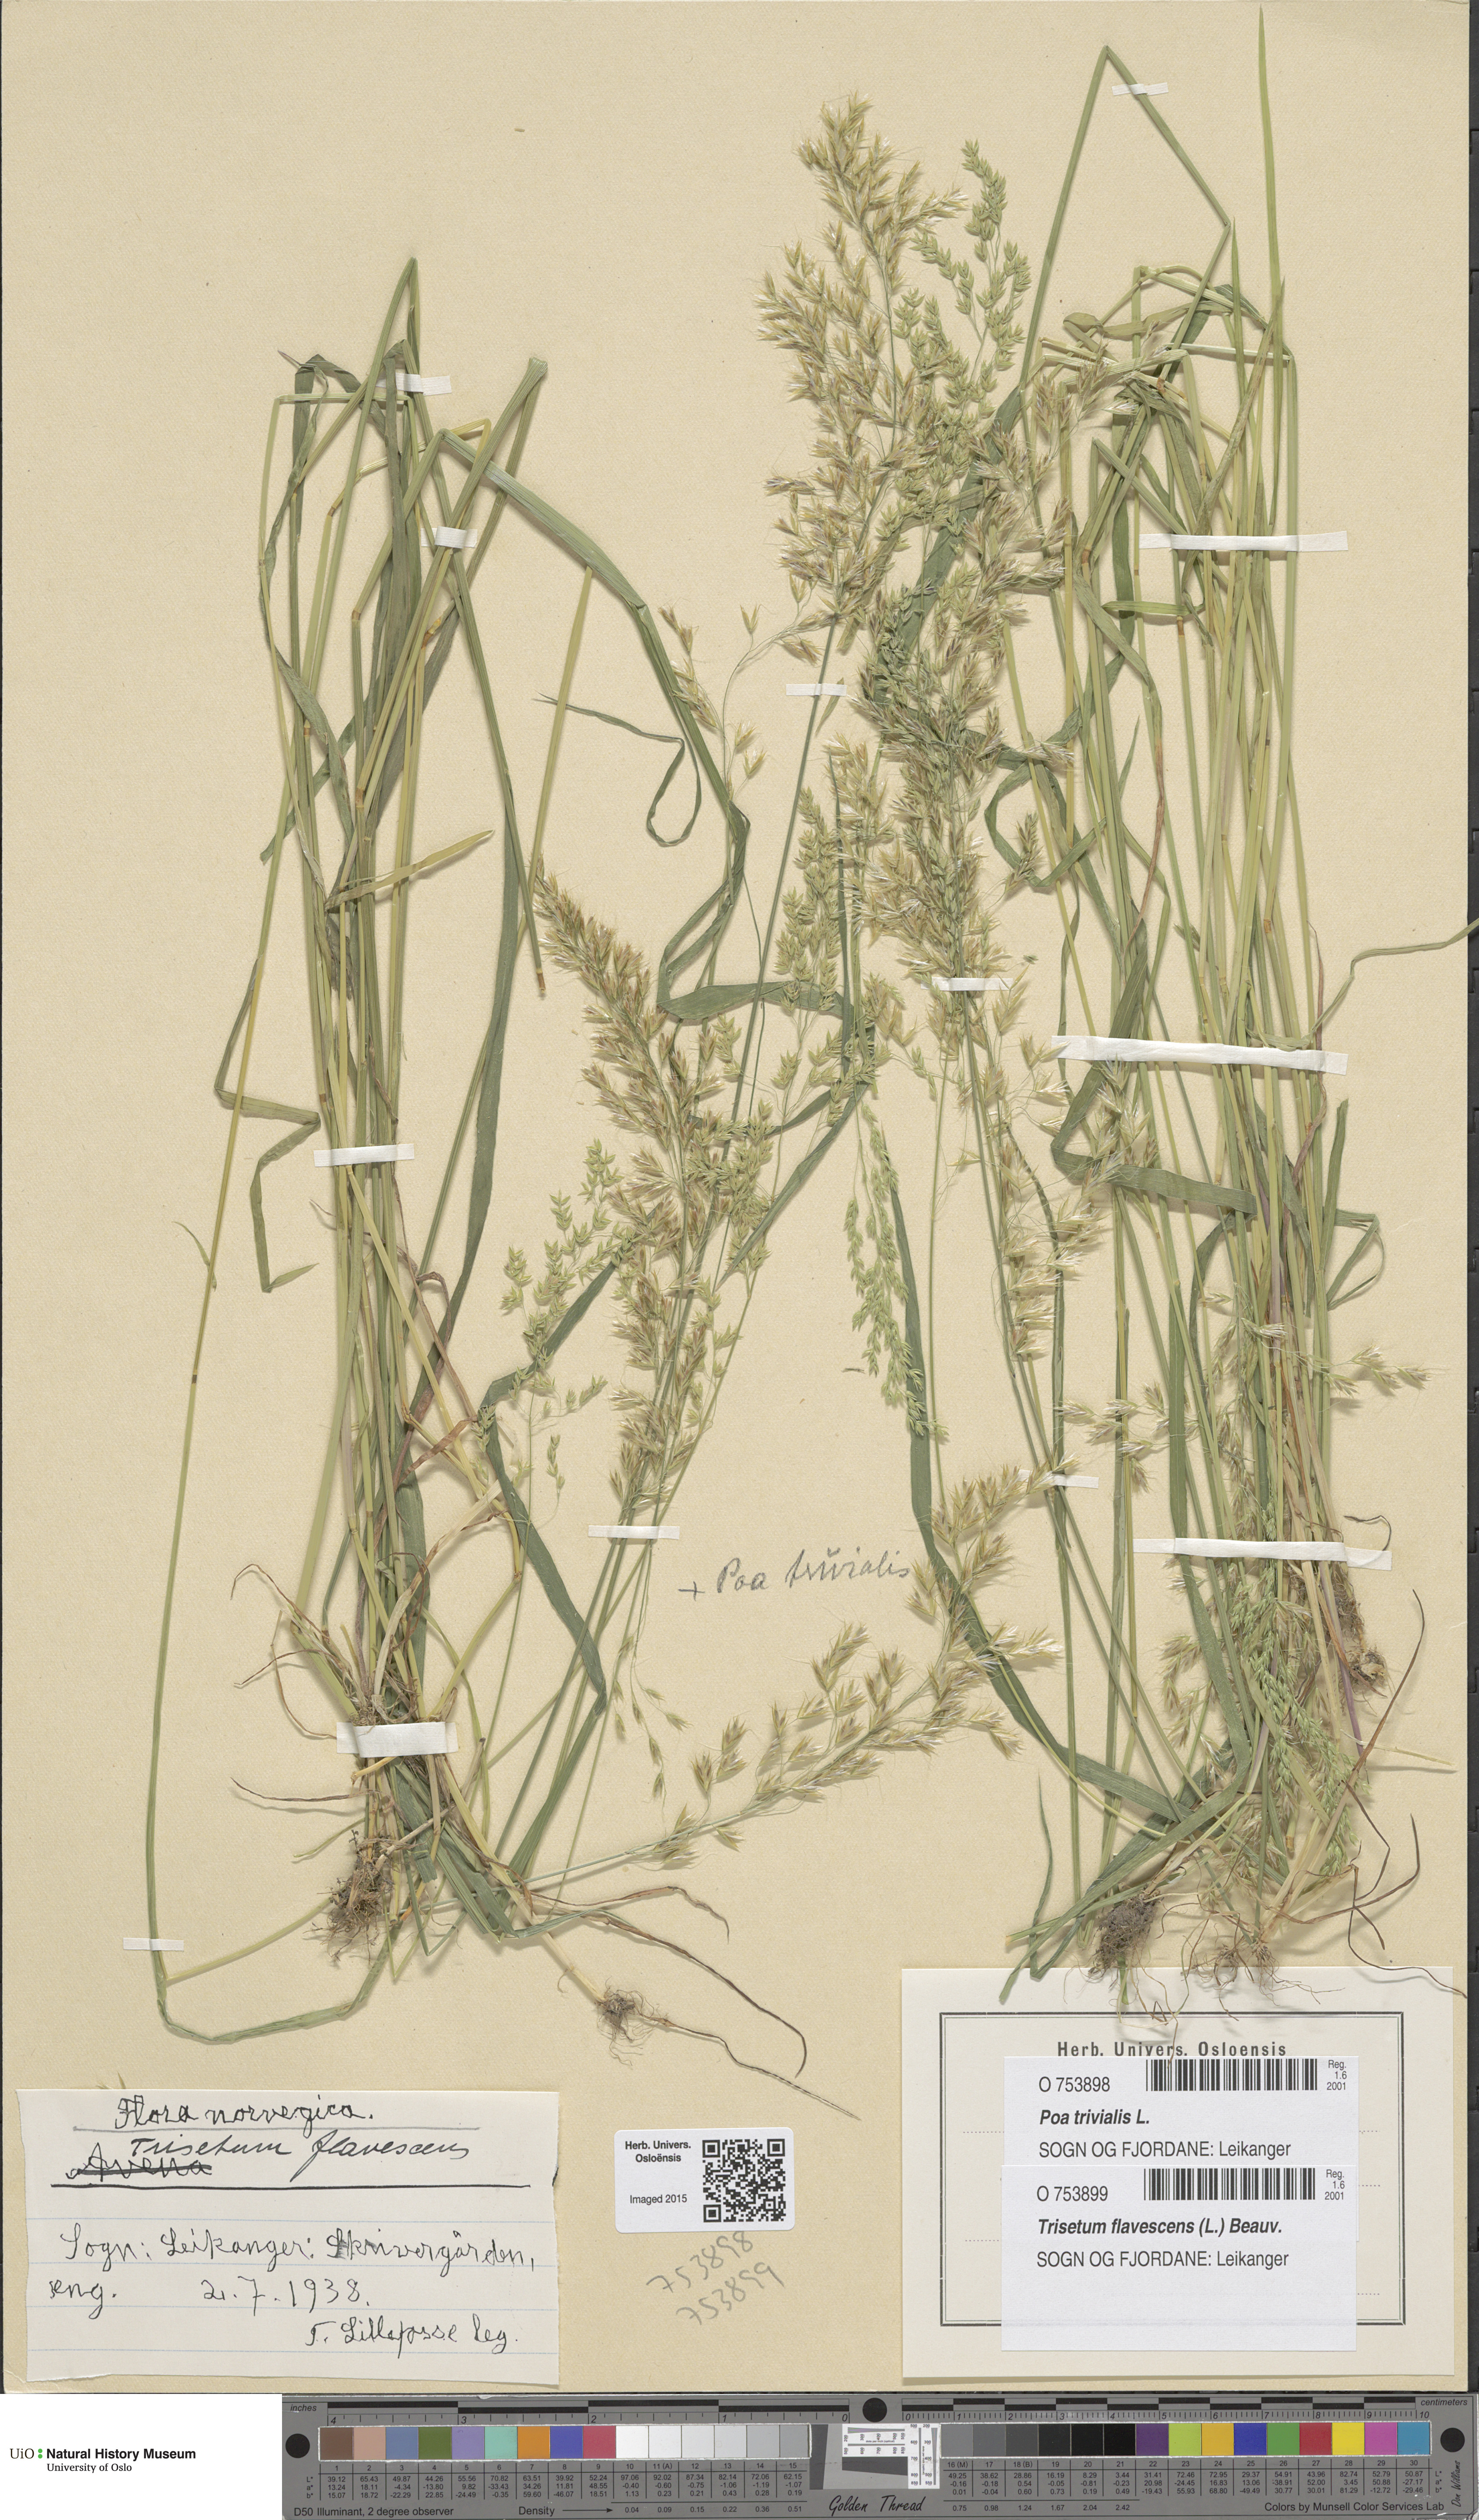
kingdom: Plantae
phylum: Tracheophyta
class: Liliopsida
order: Poales
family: Poaceae
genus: Trisetum
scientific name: Trisetum flavescens
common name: Yellow oat-grass
